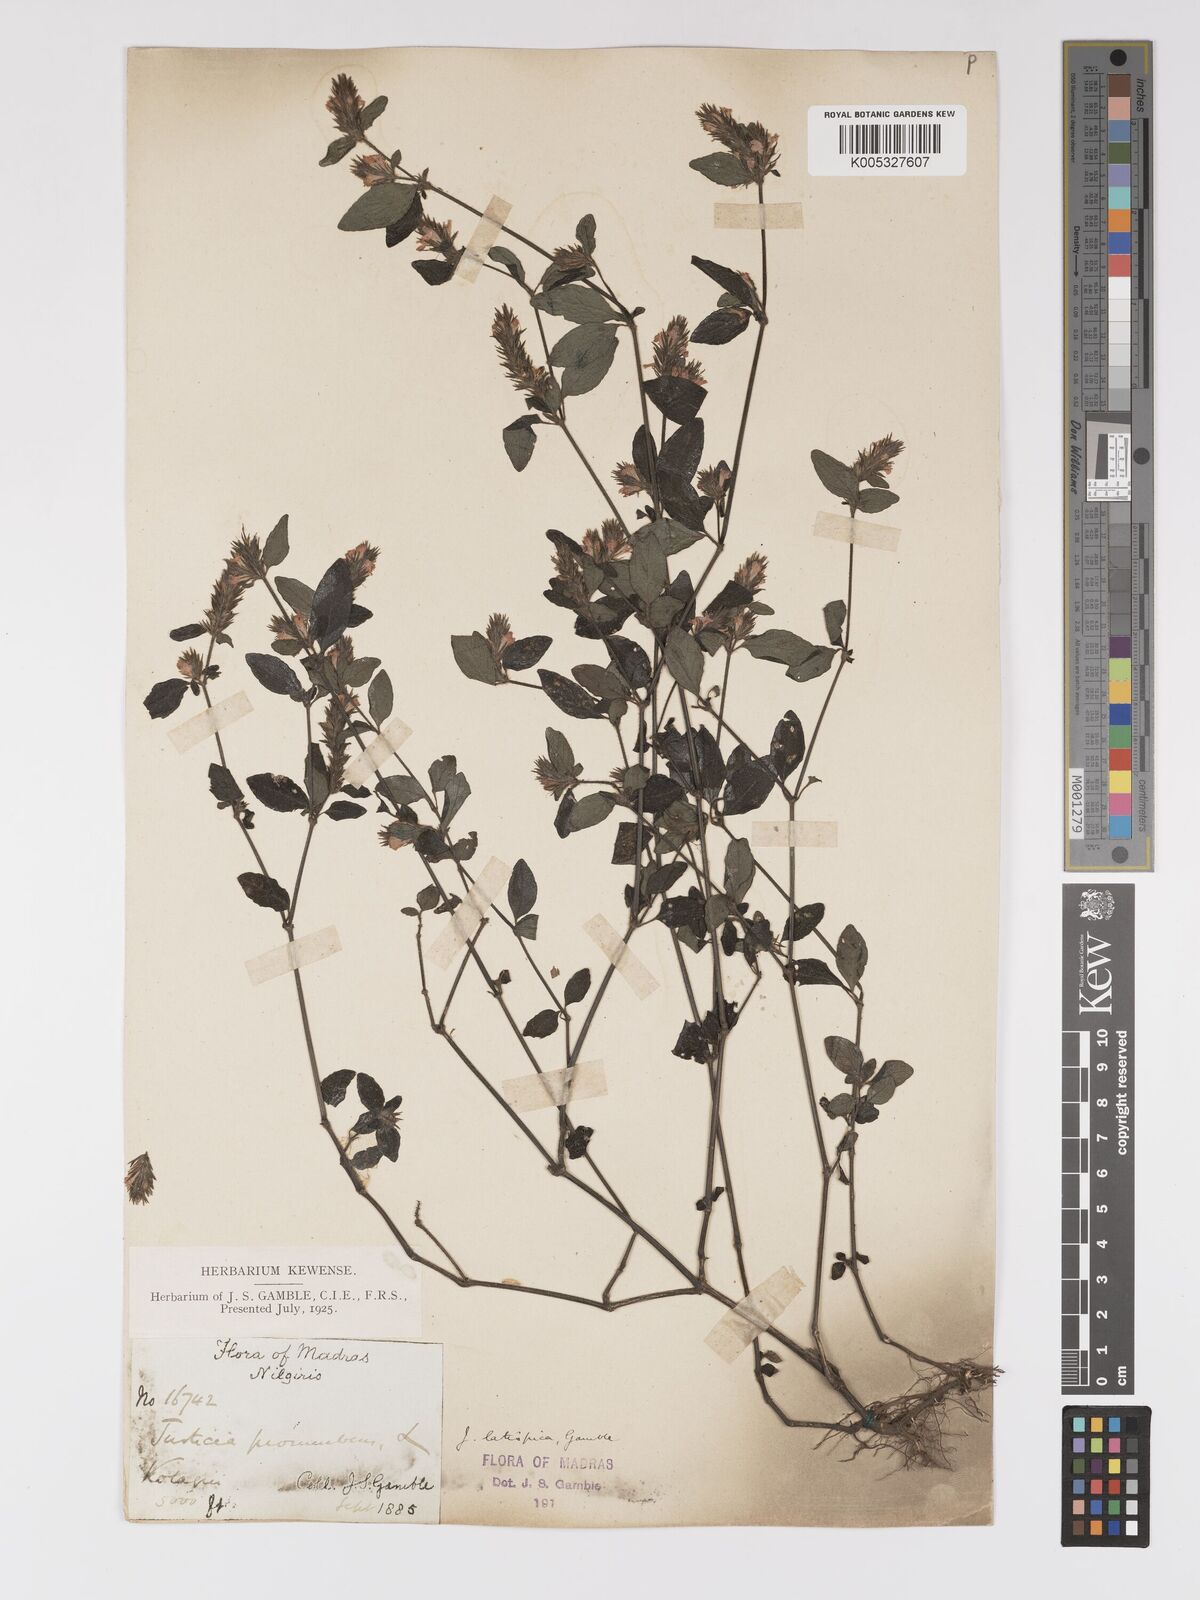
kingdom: Plantae
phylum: Tracheophyta
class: Magnoliopsida
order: Lamiales
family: Acanthaceae
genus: Rostellularia
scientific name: Rostellularia latispica
